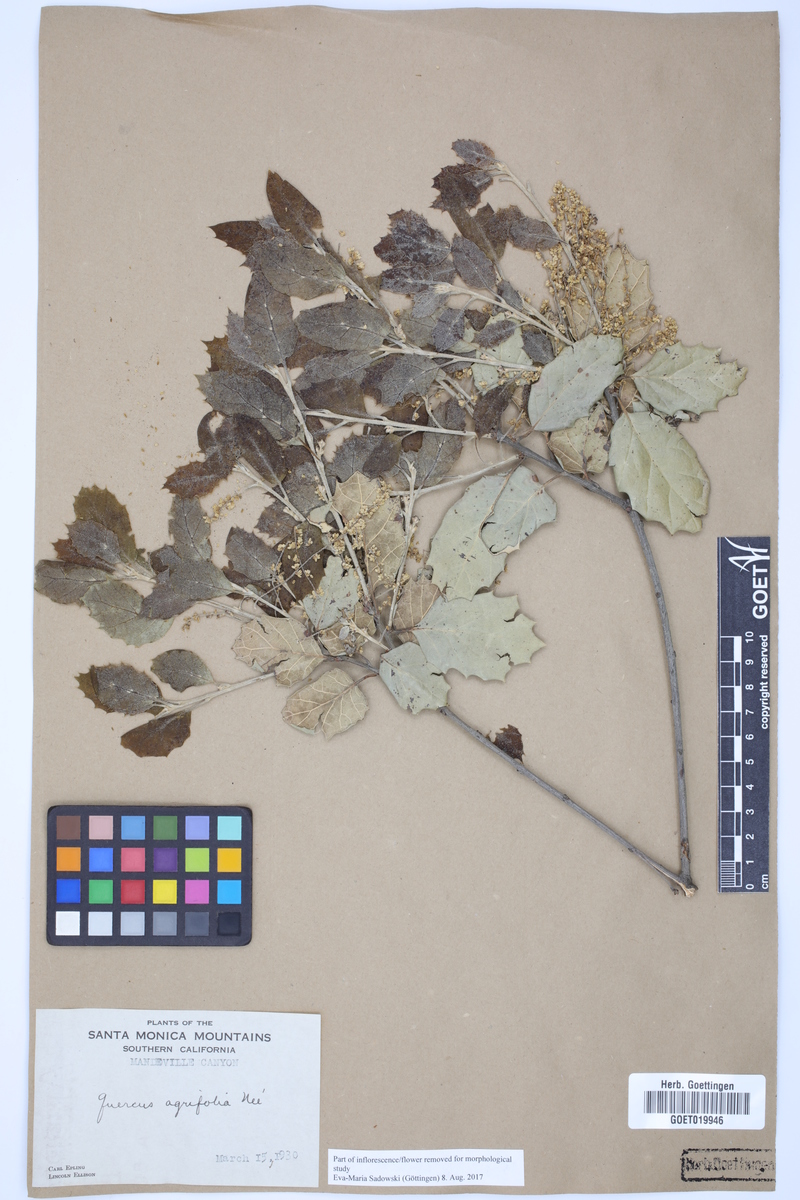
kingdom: Plantae
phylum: Tracheophyta
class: Magnoliopsida
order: Fagales
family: Fagaceae
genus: Quercus
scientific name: Quercus agrifolia
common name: California live oak
